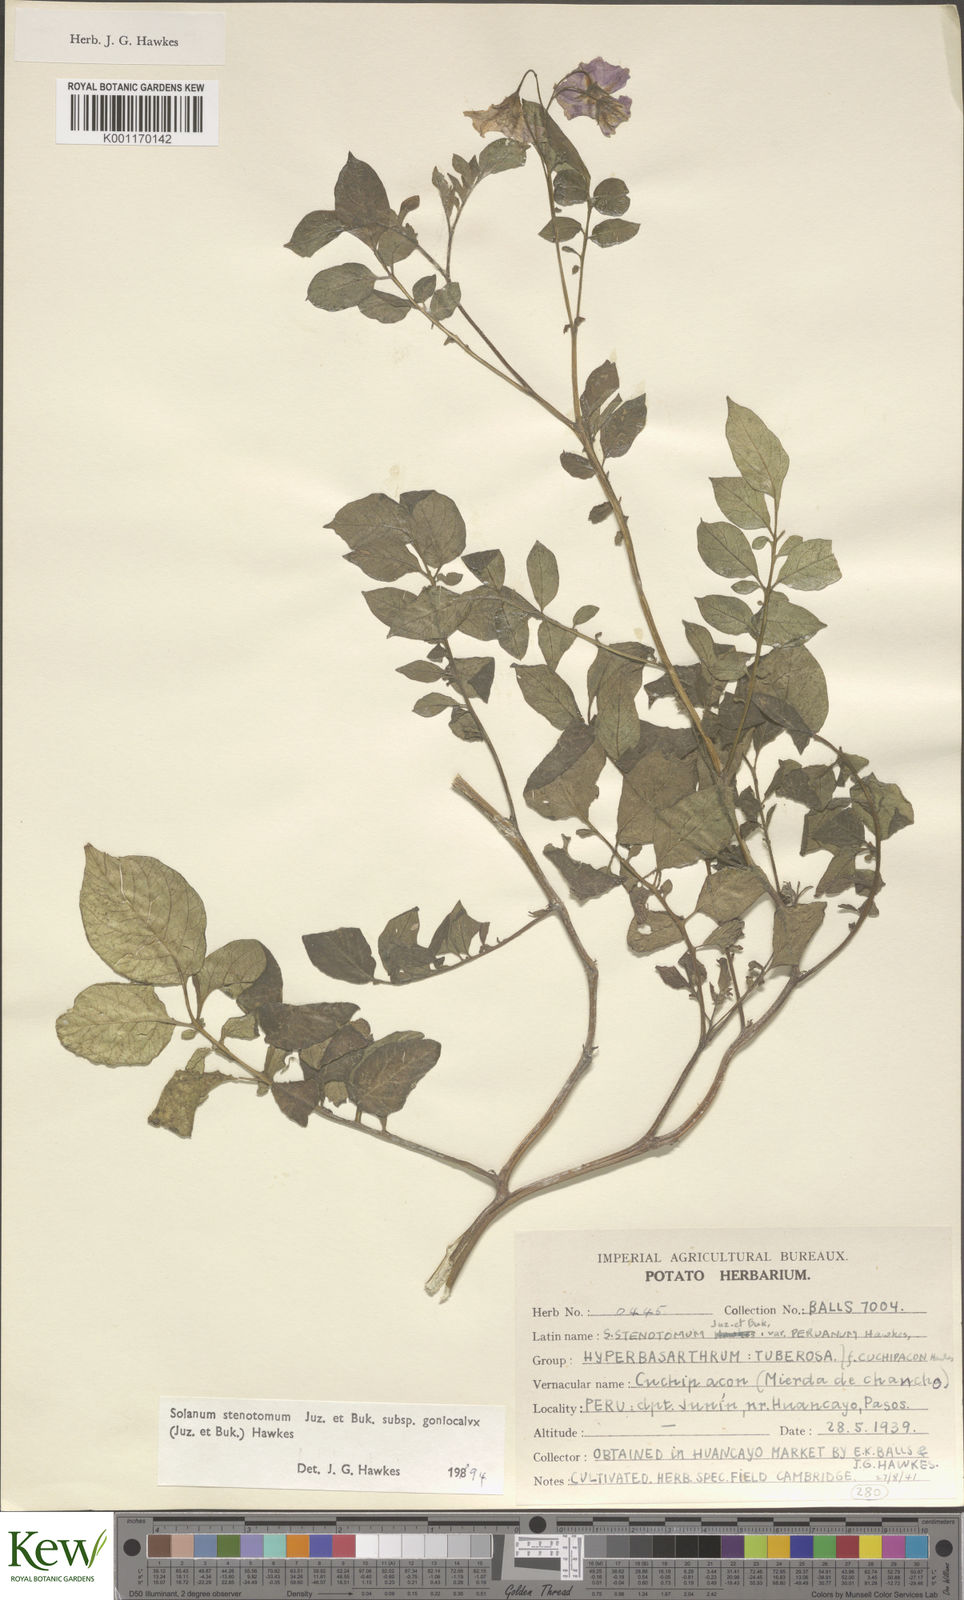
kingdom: Plantae
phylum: Tracheophyta
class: Magnoliopsida
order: Solanales
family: Solanaceae
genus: Solanum
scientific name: Solanum tuberosum
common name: Potato
